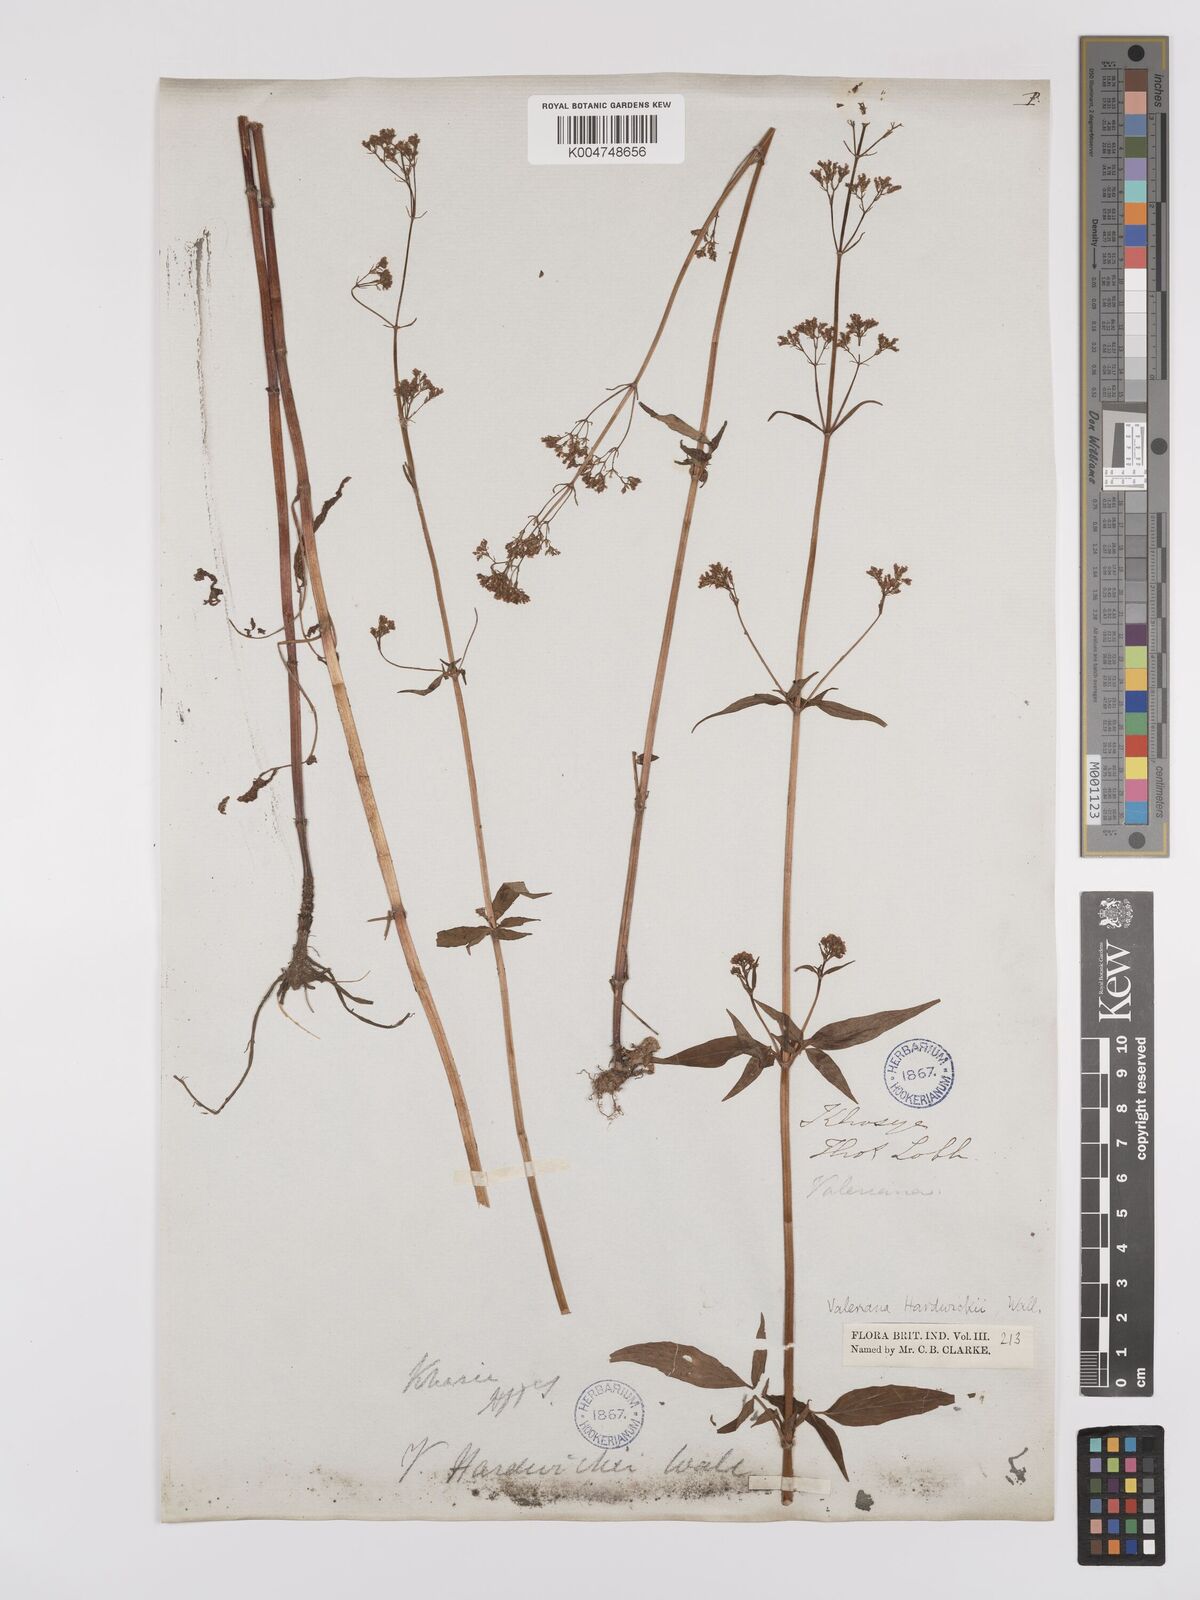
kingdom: Plantae
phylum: Tracheophyta
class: Magnoliopsida
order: Dipsacales
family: Caprifoliaceae
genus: Valeriana
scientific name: Valeriana hardwickei
